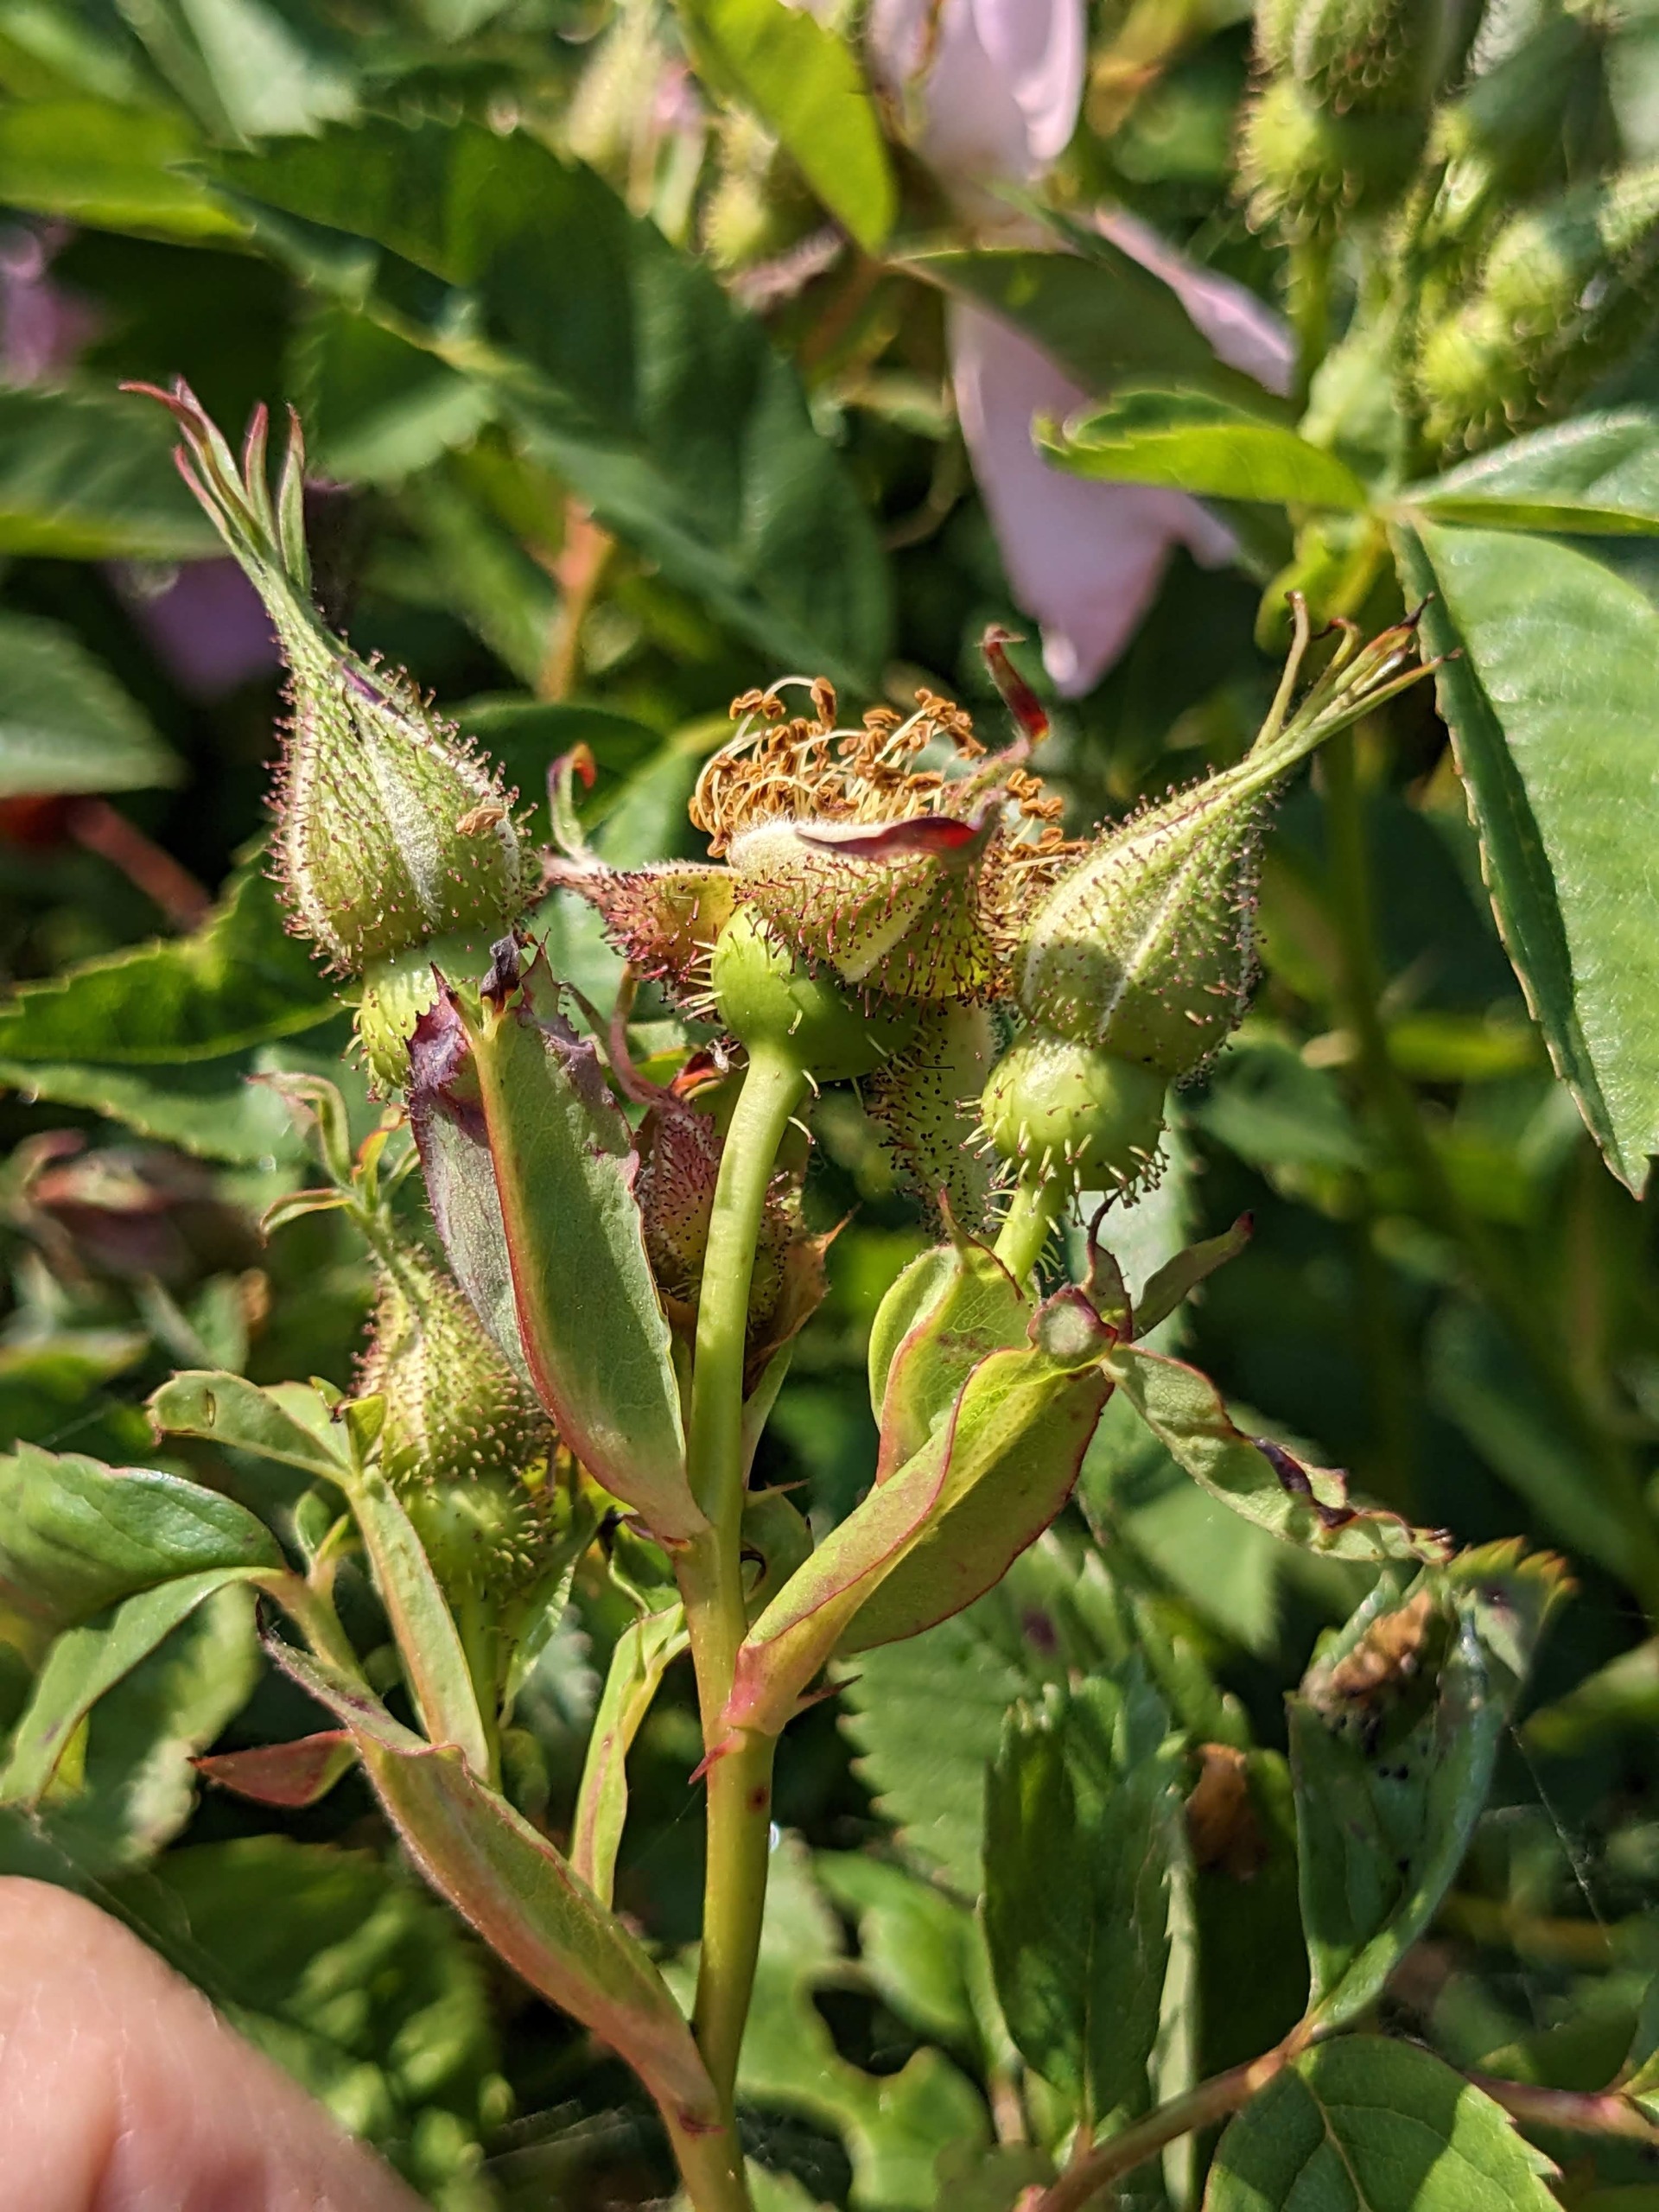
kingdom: Plantae
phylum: Tracheophyta
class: Magnoliopsida
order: Rosales
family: Rosaceae
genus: Rosa
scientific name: Rosa carolina
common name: Glansbladet rose
